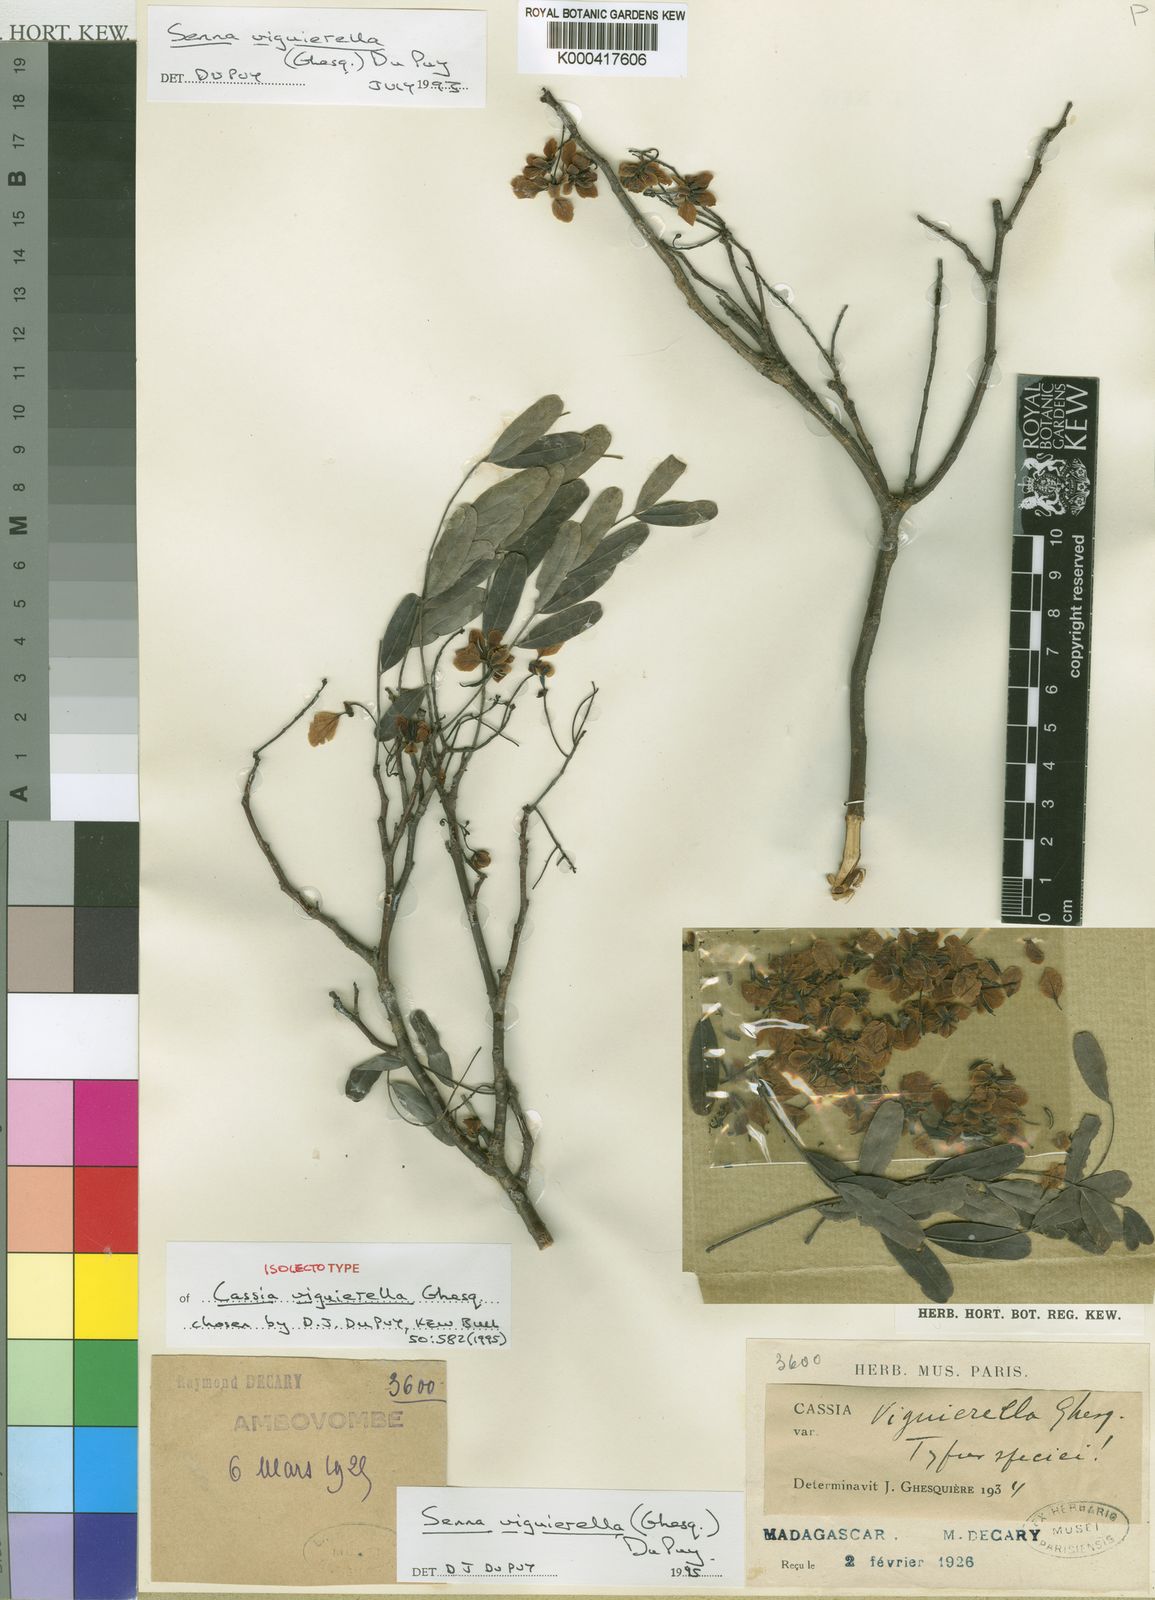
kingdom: Plantae
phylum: Tracheophyta
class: Magnoliopsida
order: Fabales
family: Fabaceae
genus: Senna
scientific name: Senna viguierella
